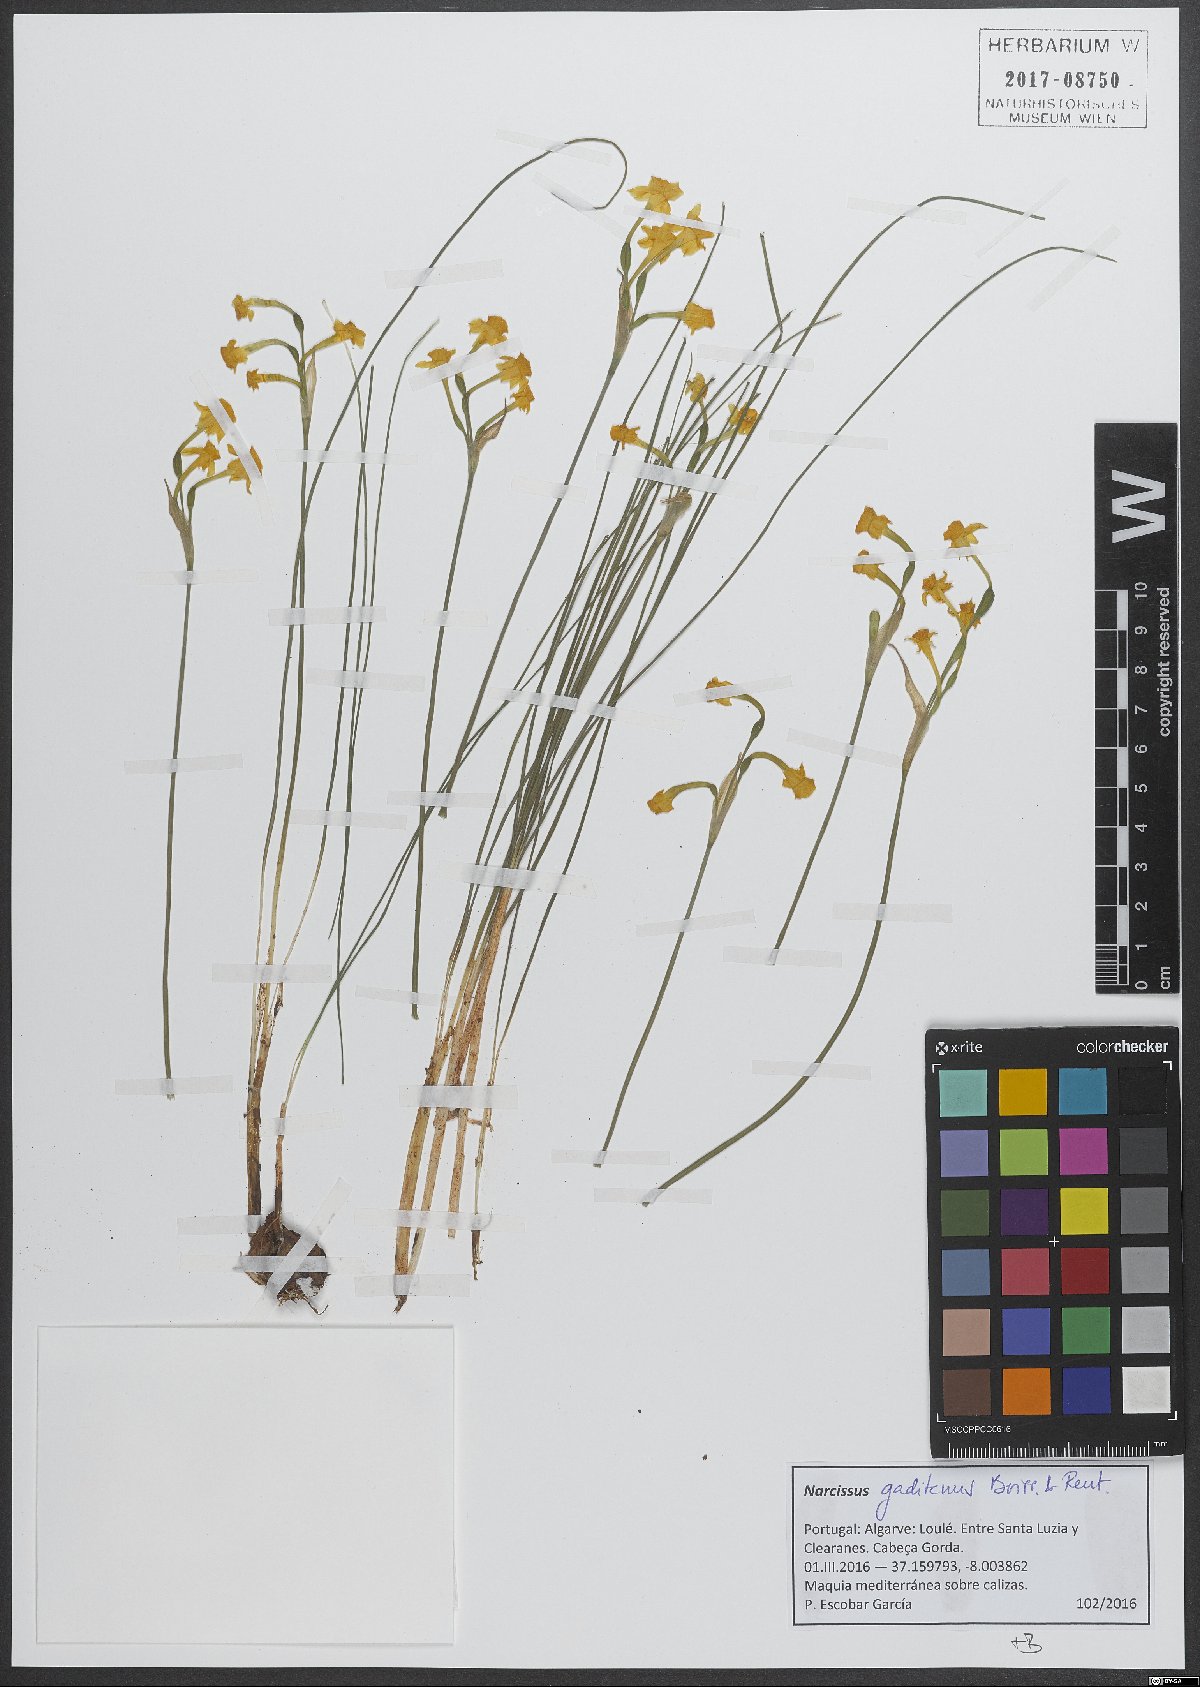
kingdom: Plantae
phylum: Tracheophyta
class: Liliopsida
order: Asparagales
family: Amaryllidaceae
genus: Narcissus
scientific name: Narcissus gaditanus
